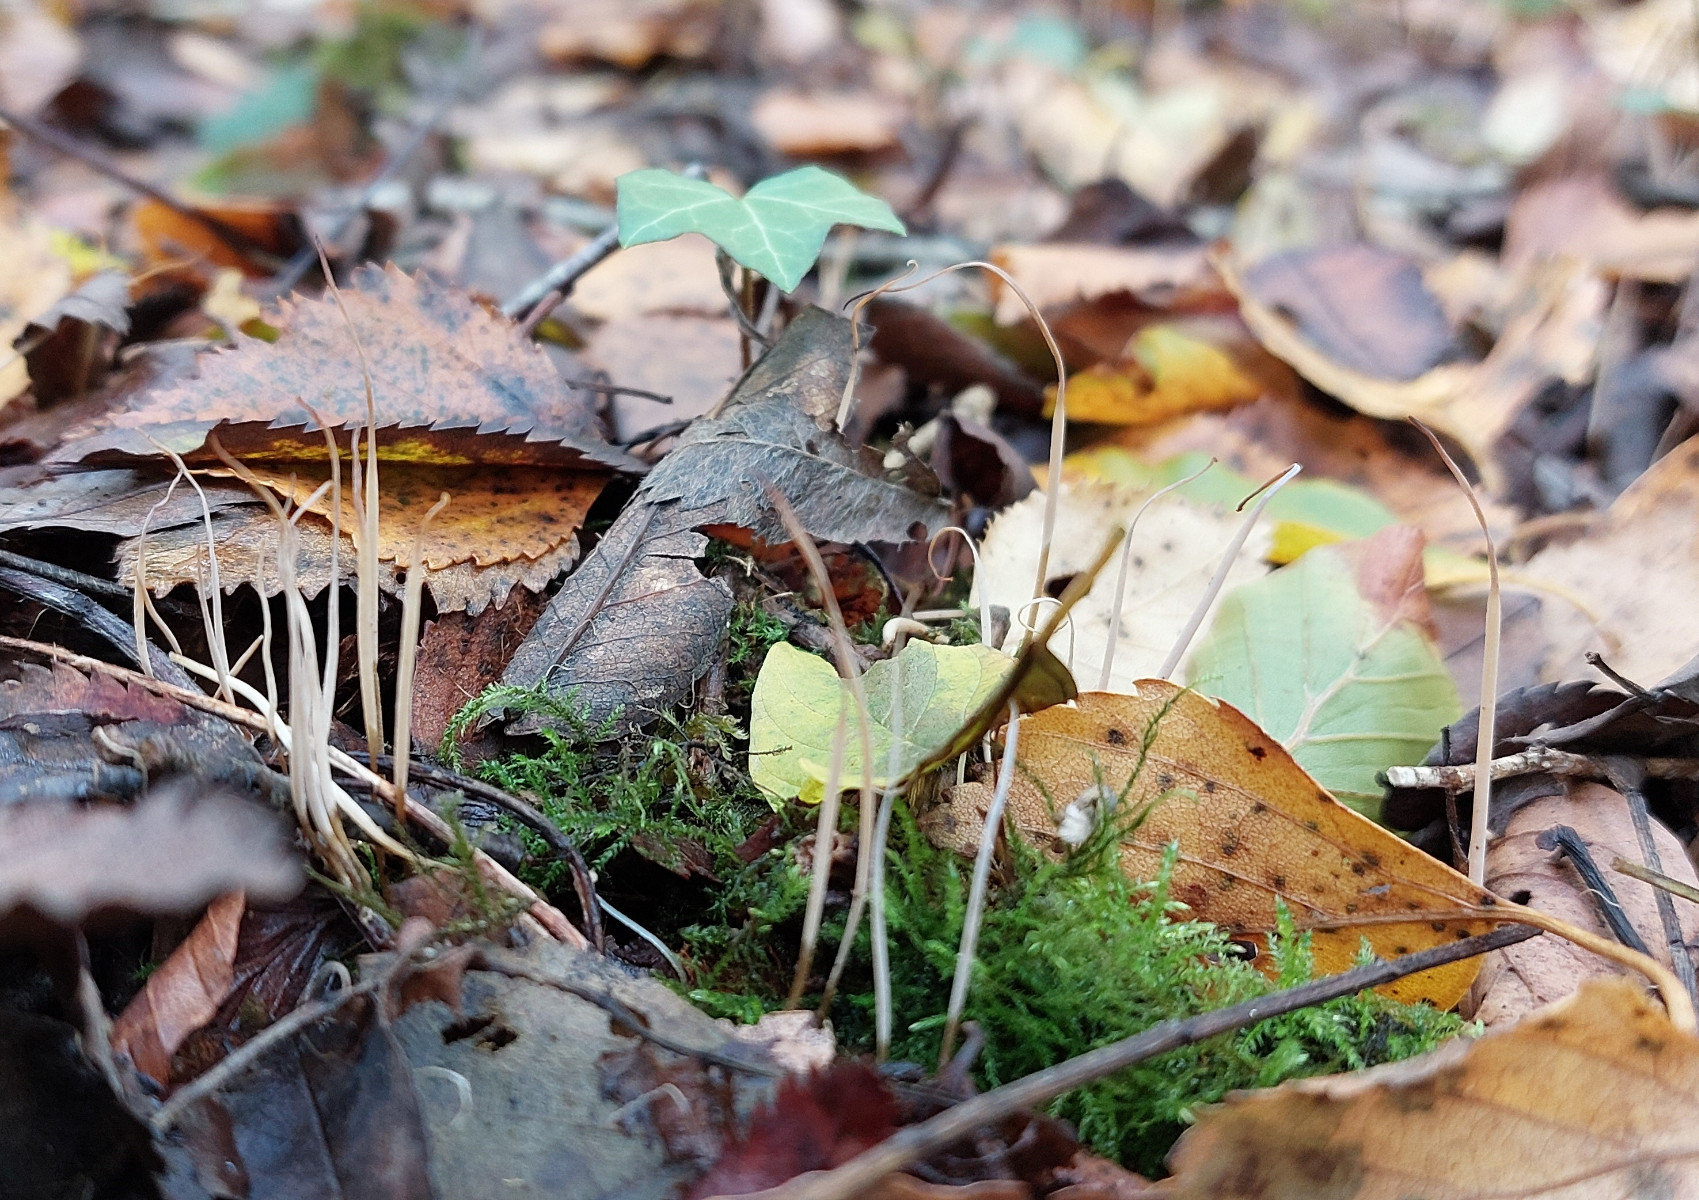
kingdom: Fungi
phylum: Basidiomycota
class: Agaricomycetes
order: Agaricales
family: Typhulaceae
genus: Typhula
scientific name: Typhula juncea
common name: trådagtig rørkølle
